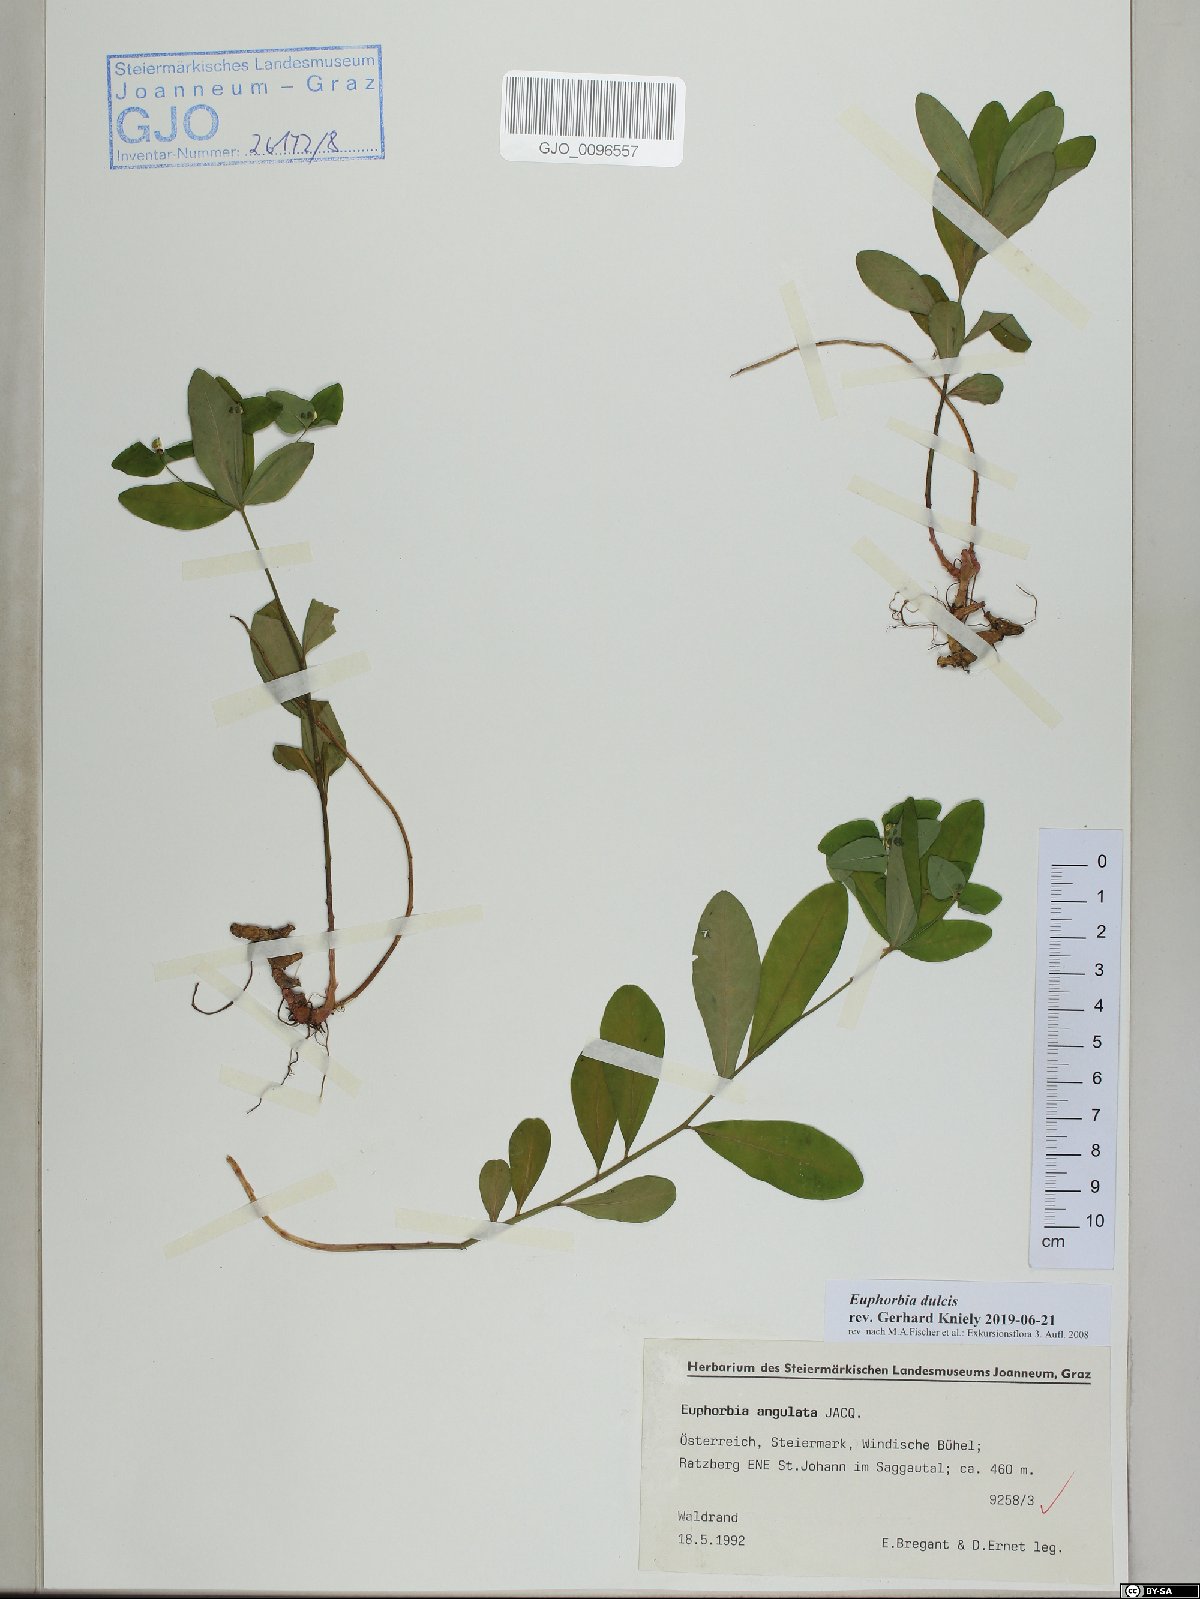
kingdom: Plantae
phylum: Tracheophyta
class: Magnoliopsida
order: Malpighiales
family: Euphorbiaceae
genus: Euphorbia
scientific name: Euphorbia dulcis
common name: Sweet spurge
